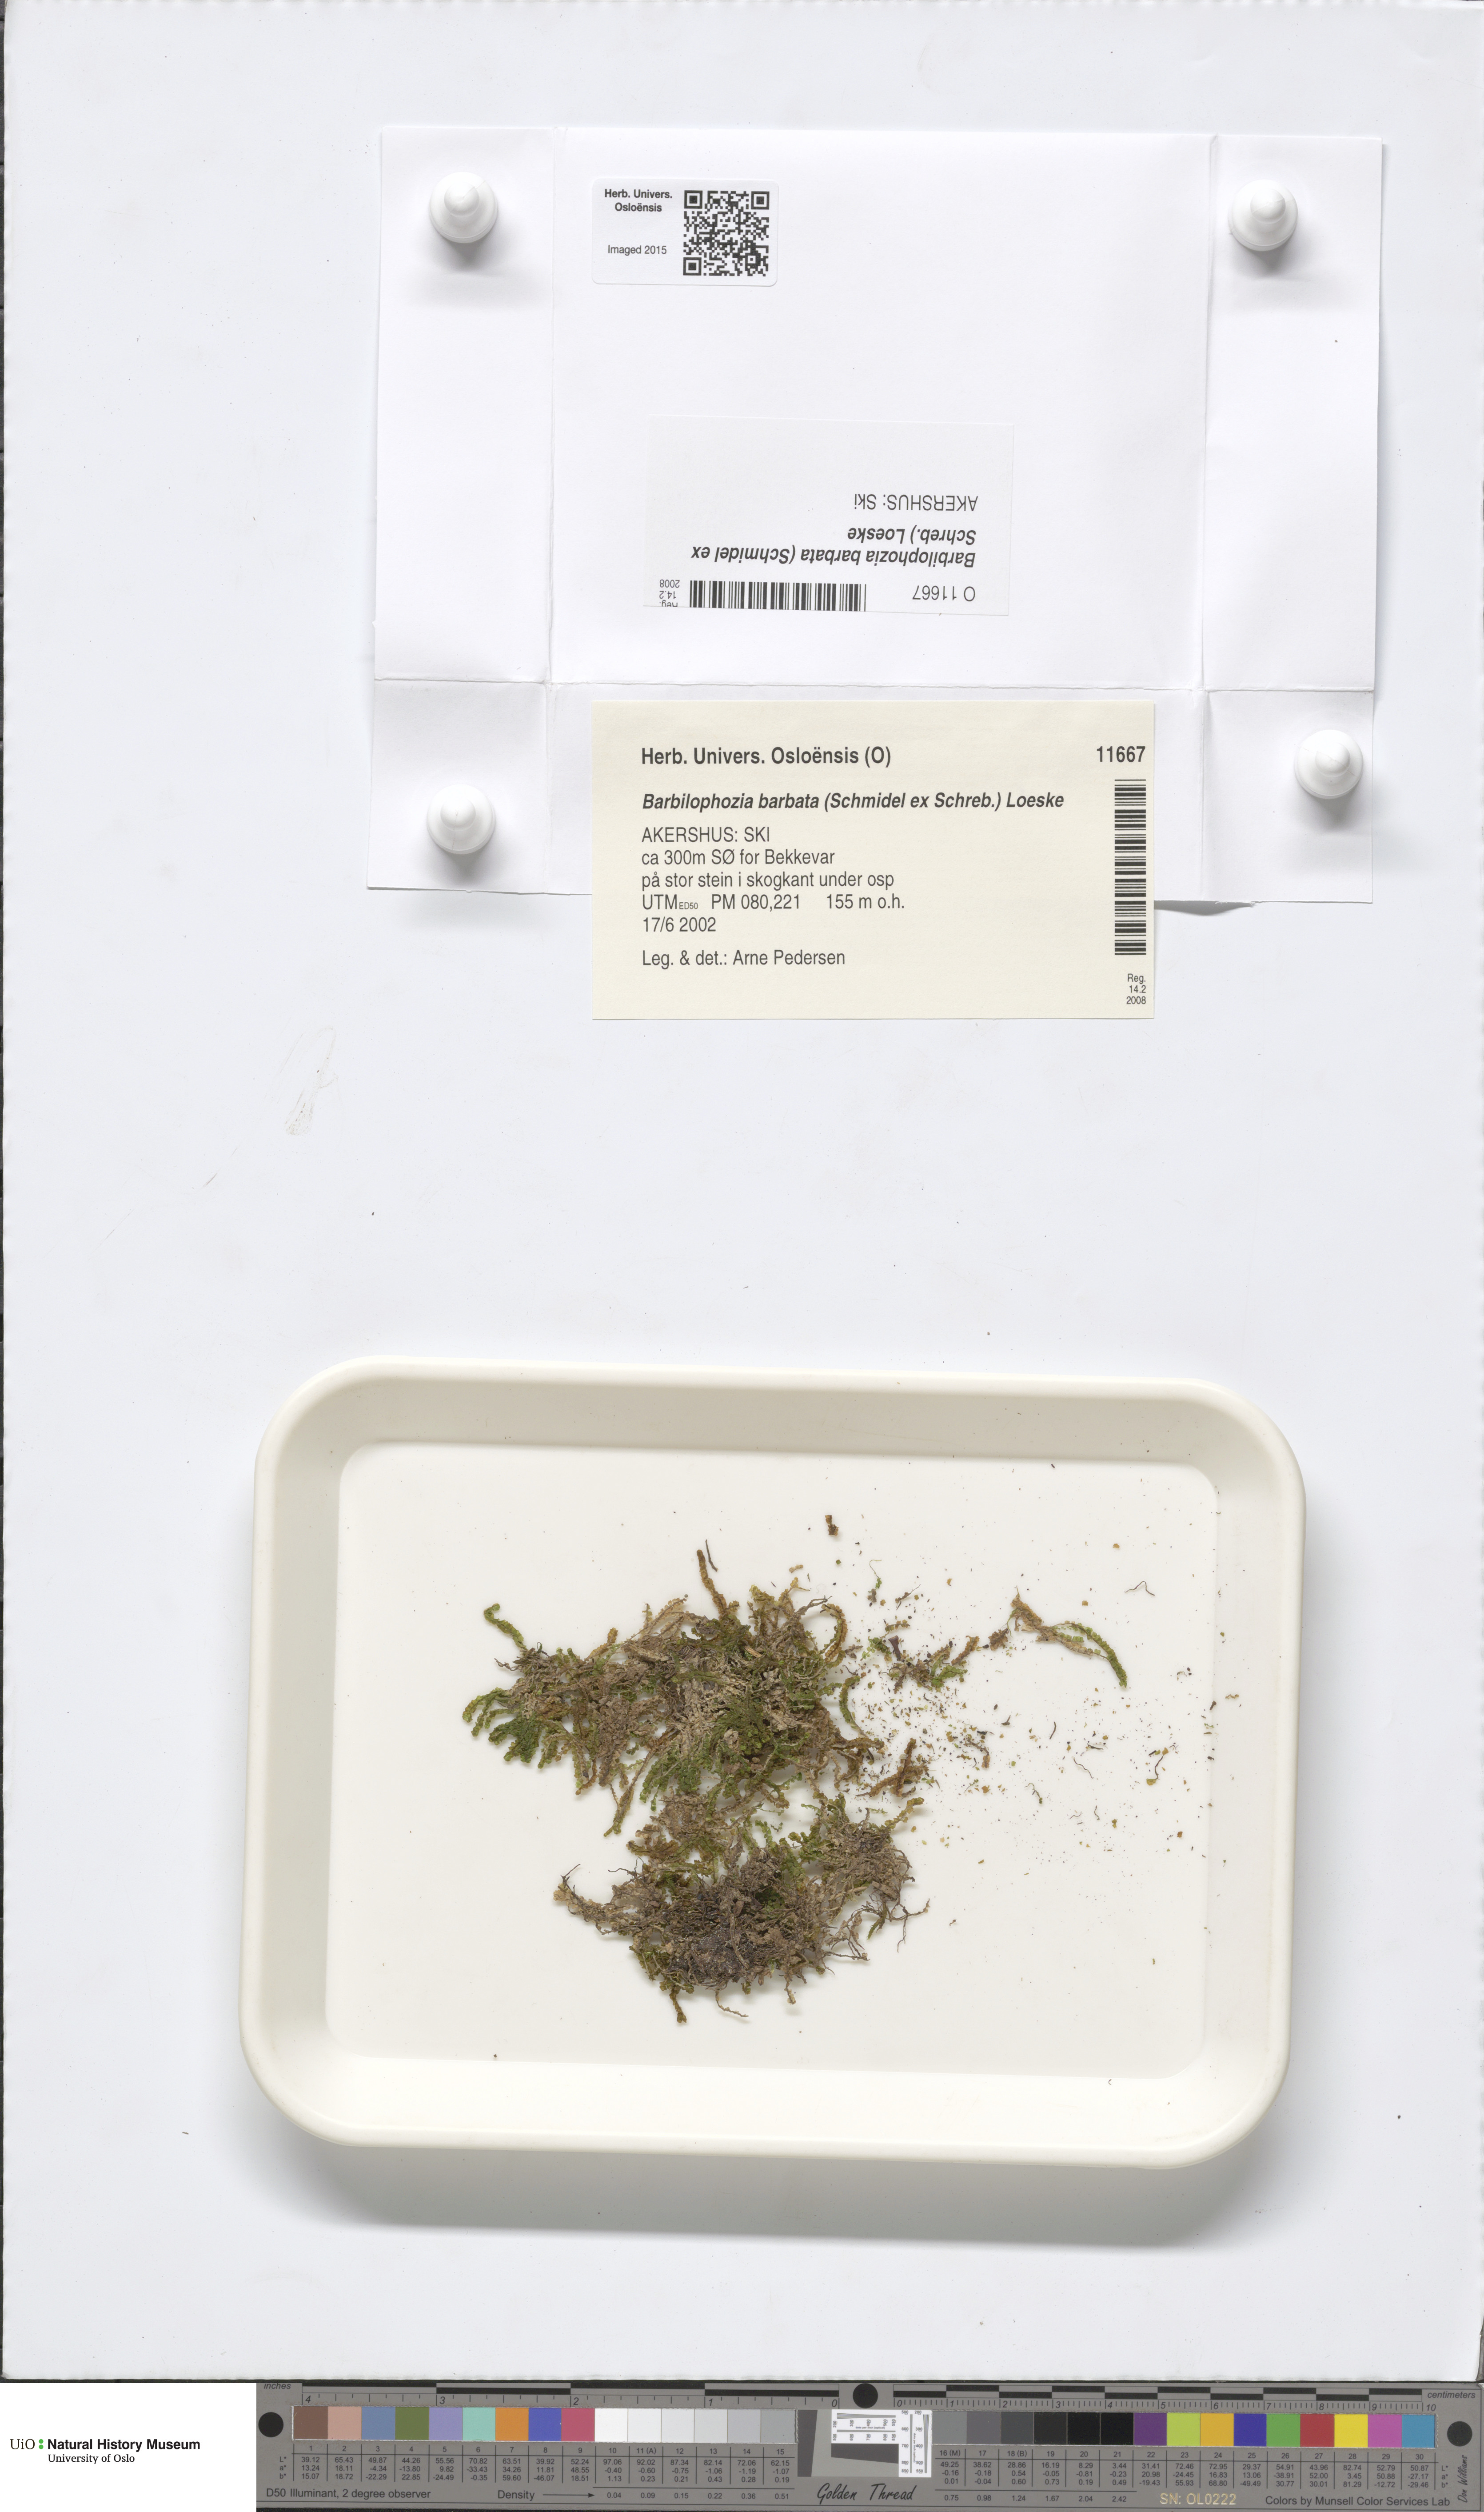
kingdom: Plantae
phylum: Marchantiophyta
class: Jungermanniopsida
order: Jungermanniales
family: Anastrophyllaceae
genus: Barbilophozia
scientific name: Barbilophozia barbata
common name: Bearded pawwort
